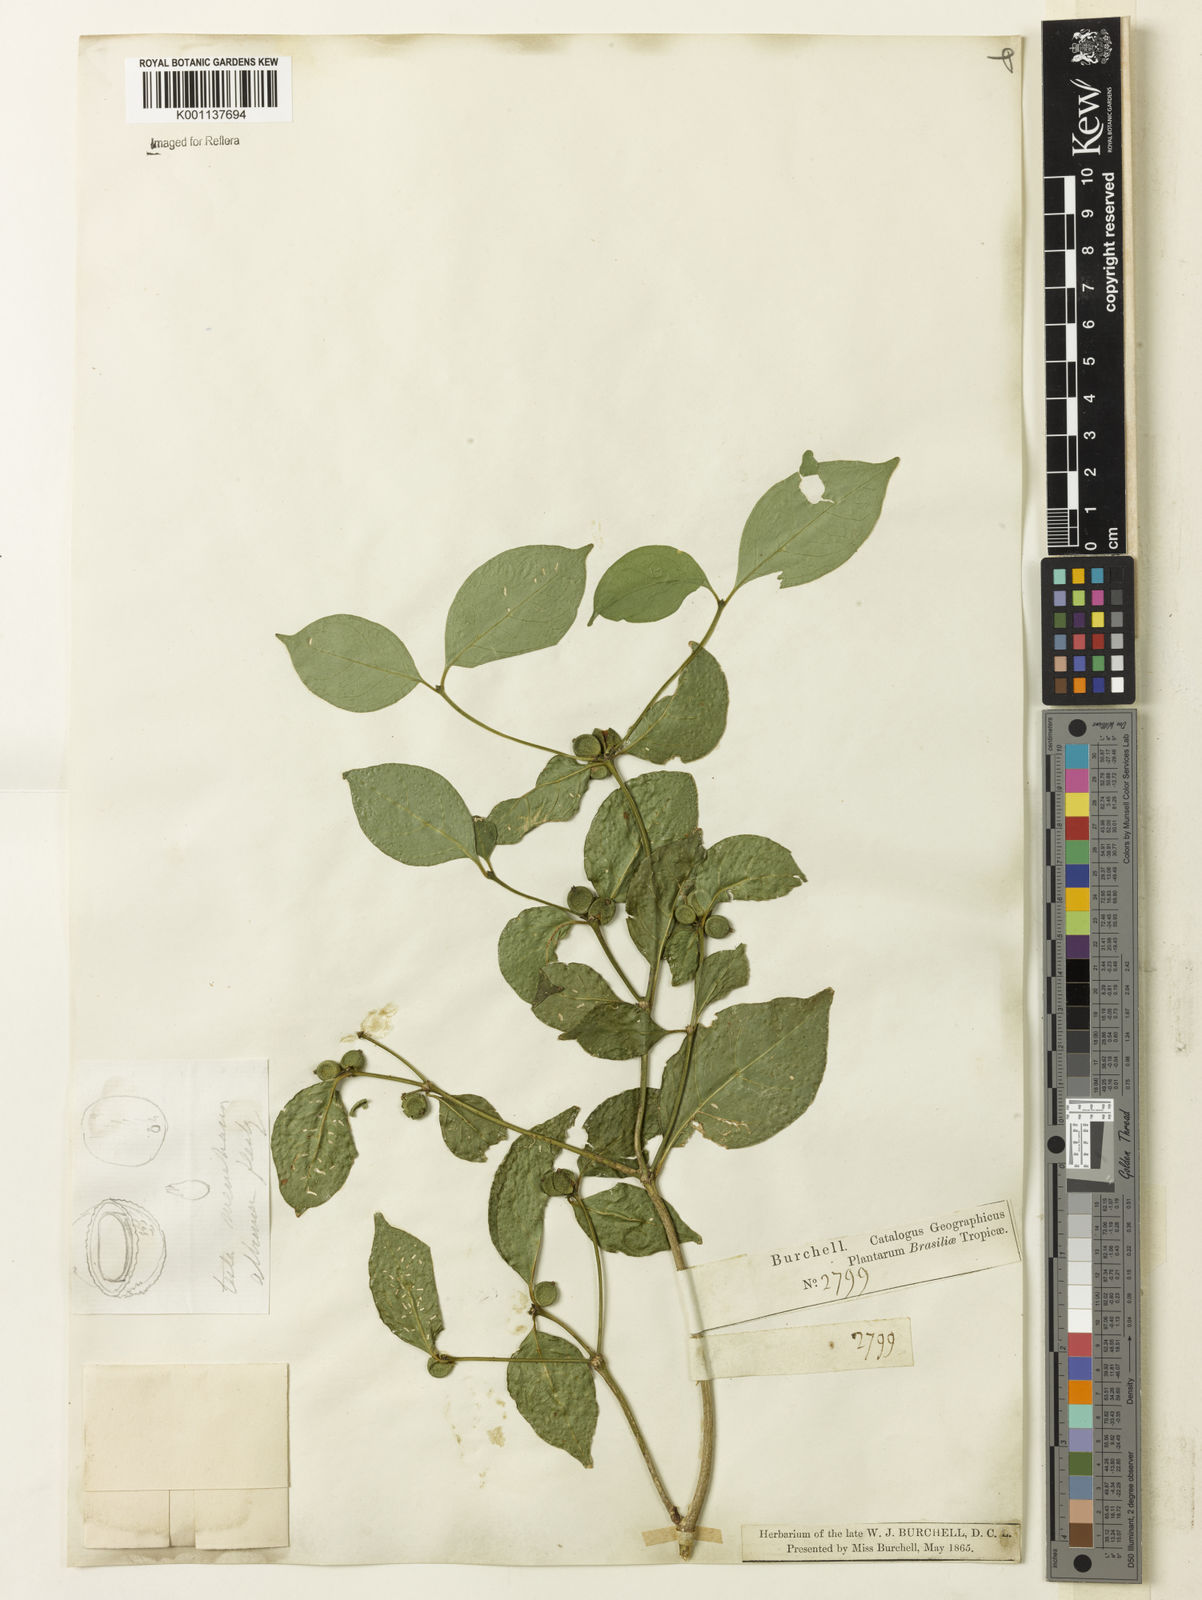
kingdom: Plantae
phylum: Tracheophyta
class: Magnoliopsida
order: Gentianales
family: Rubiaceae
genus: Coussarea
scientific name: Coussarea
